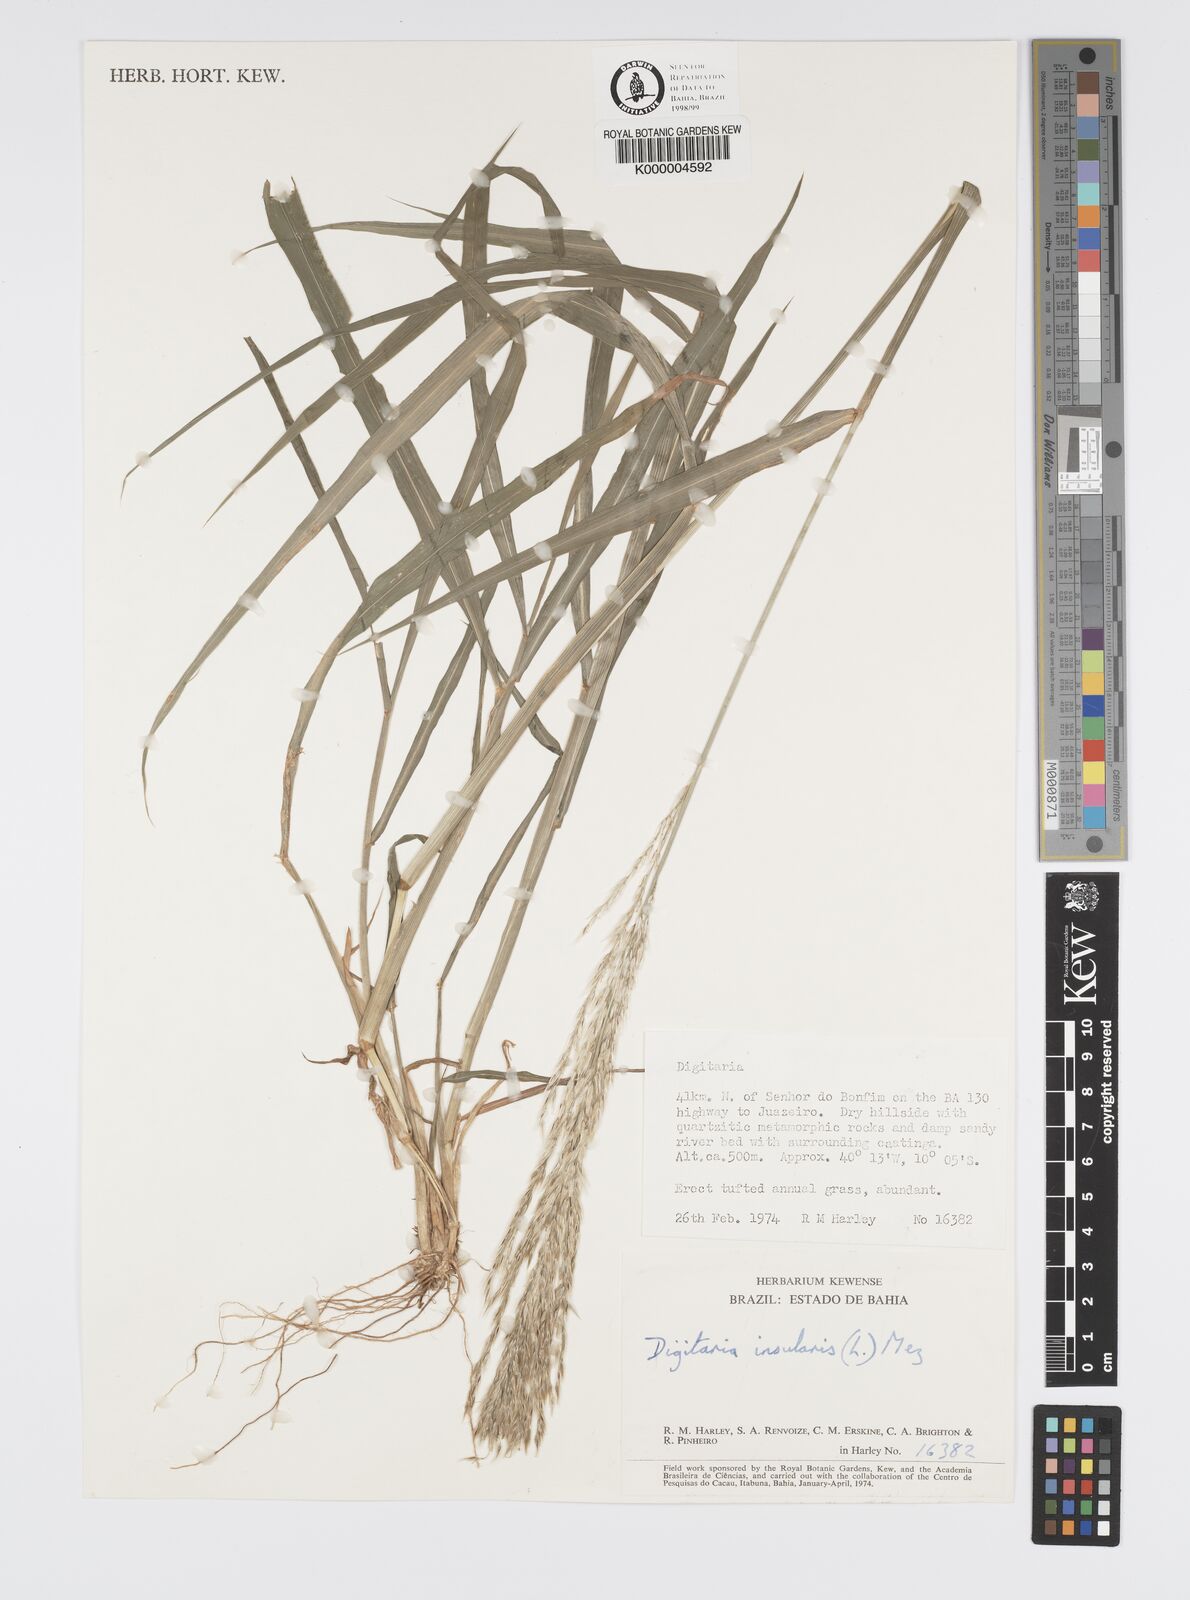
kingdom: Plantae
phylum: Tracheophyta
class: Liliopsida
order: Poales
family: Poaceae
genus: Digitaria
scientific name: Digitaria
